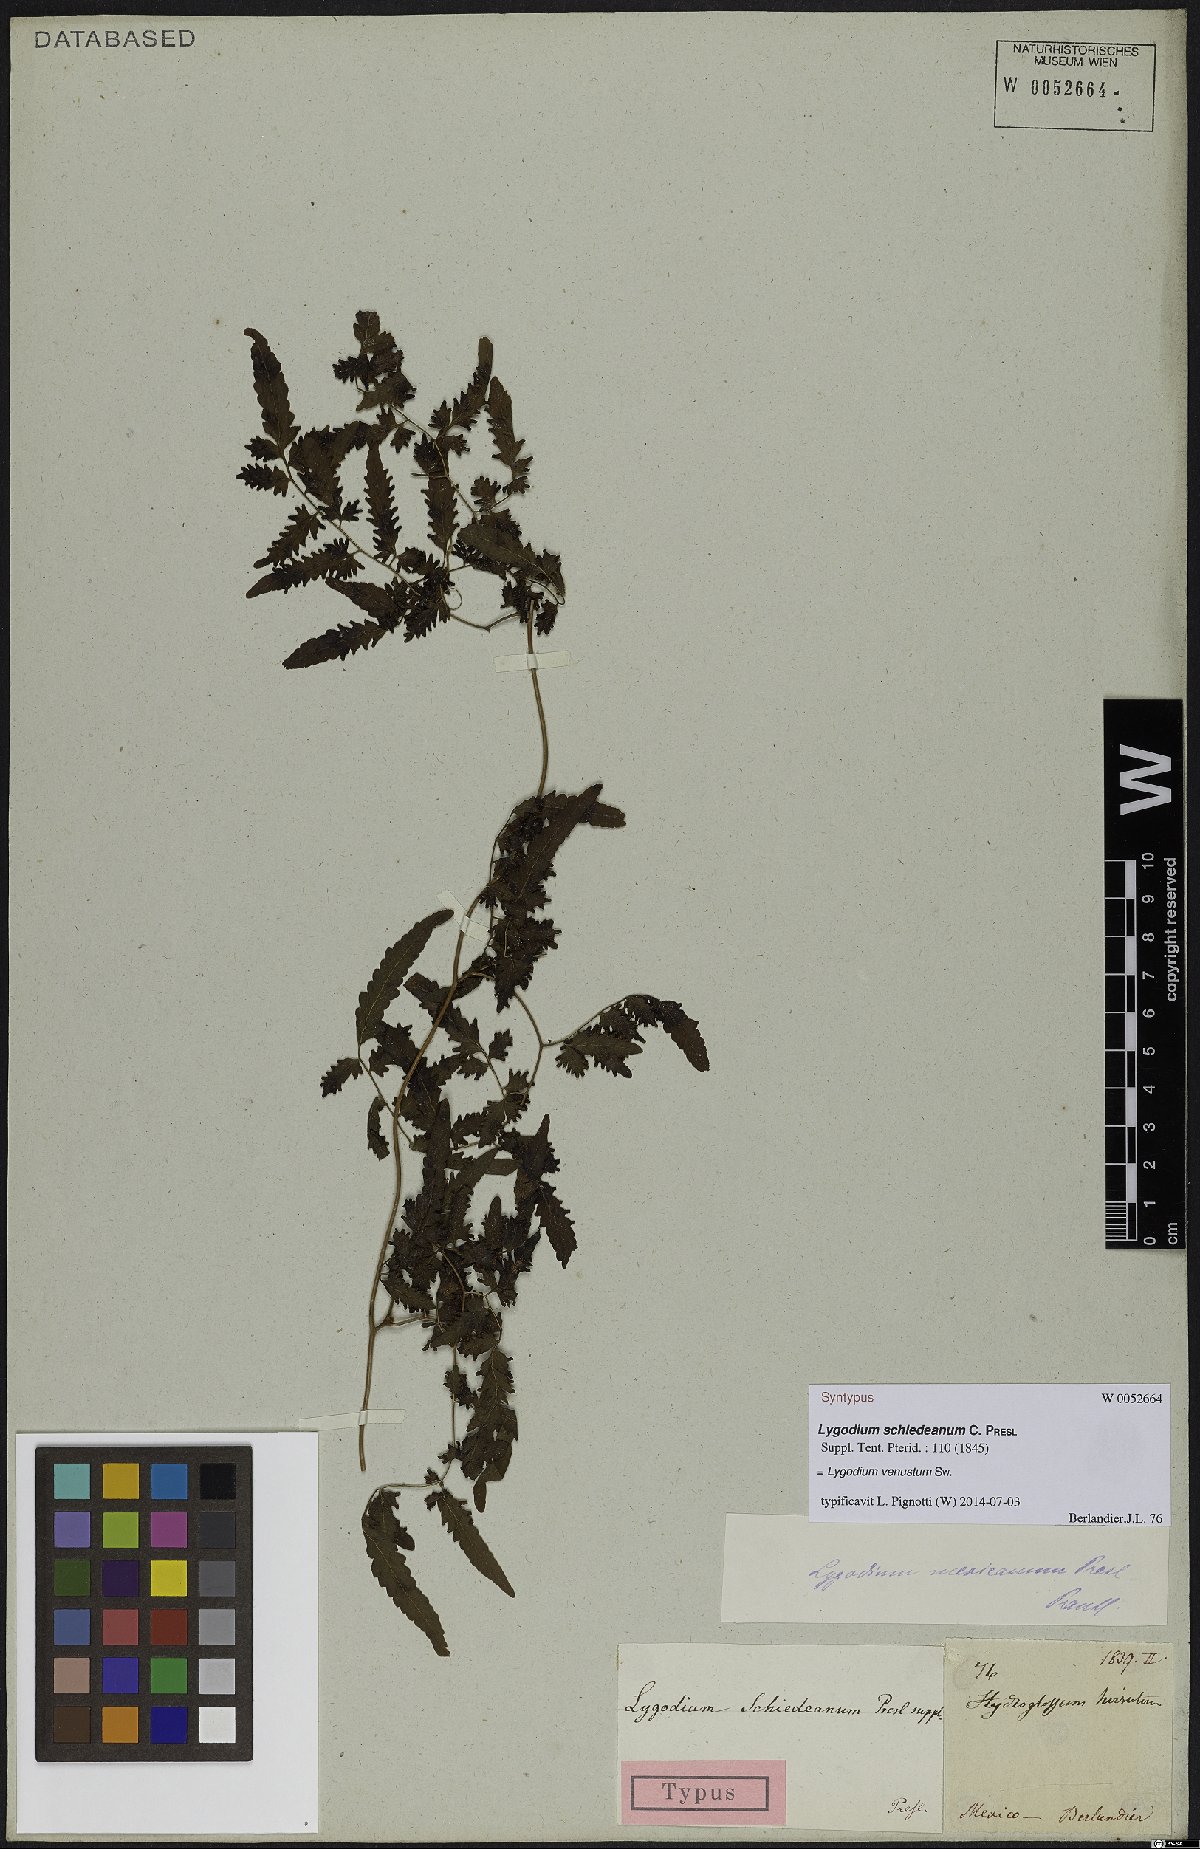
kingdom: Plantae
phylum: Tracheophyta
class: Polypodiopsida
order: Schizaeales
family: Lygodiaceae
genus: Lygodium
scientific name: Lygodium venustum
